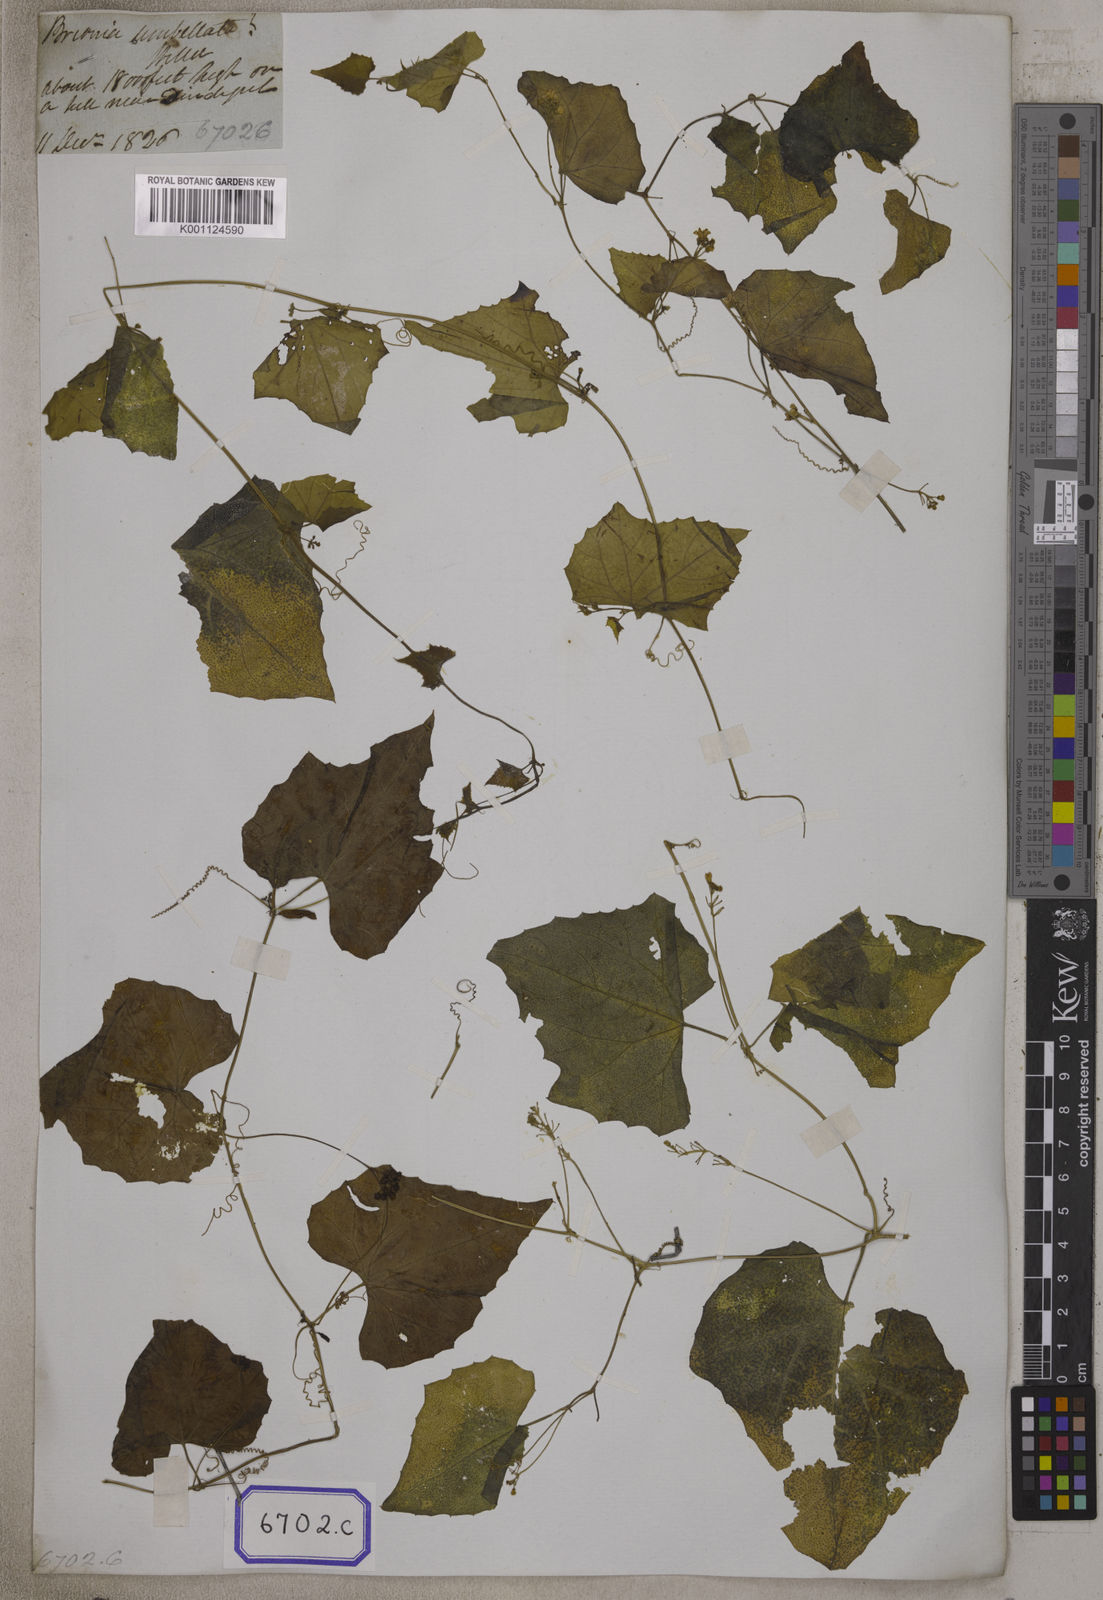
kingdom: Plantae
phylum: Tracheophyta
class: Magnoliopsida
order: Cucurbitales
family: Cucurbitaceae
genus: Bryonia
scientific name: Bryonia
